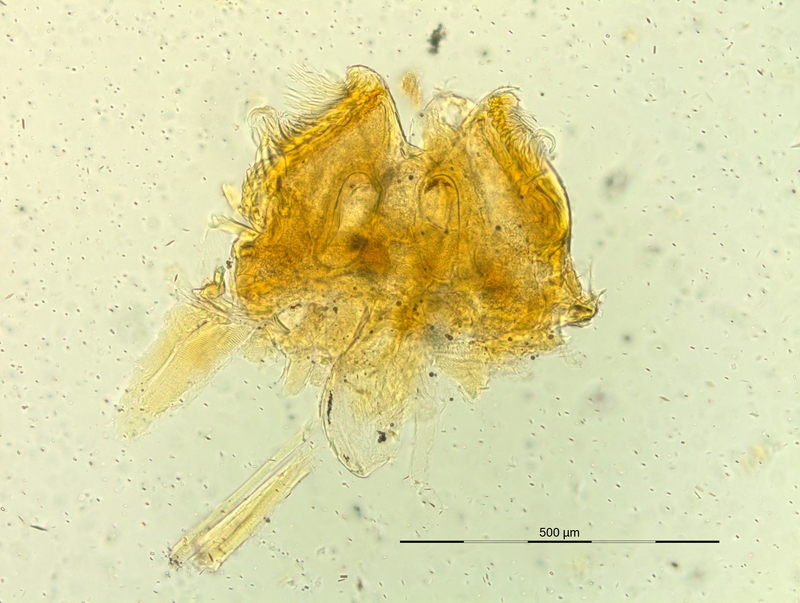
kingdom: Animalia
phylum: Arthropoda
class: Diplopoda
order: Chordeumatida
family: Craspedosomatidae
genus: Pyrgocyphosoma
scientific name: Pyrgocyphosoma dalmazzense
